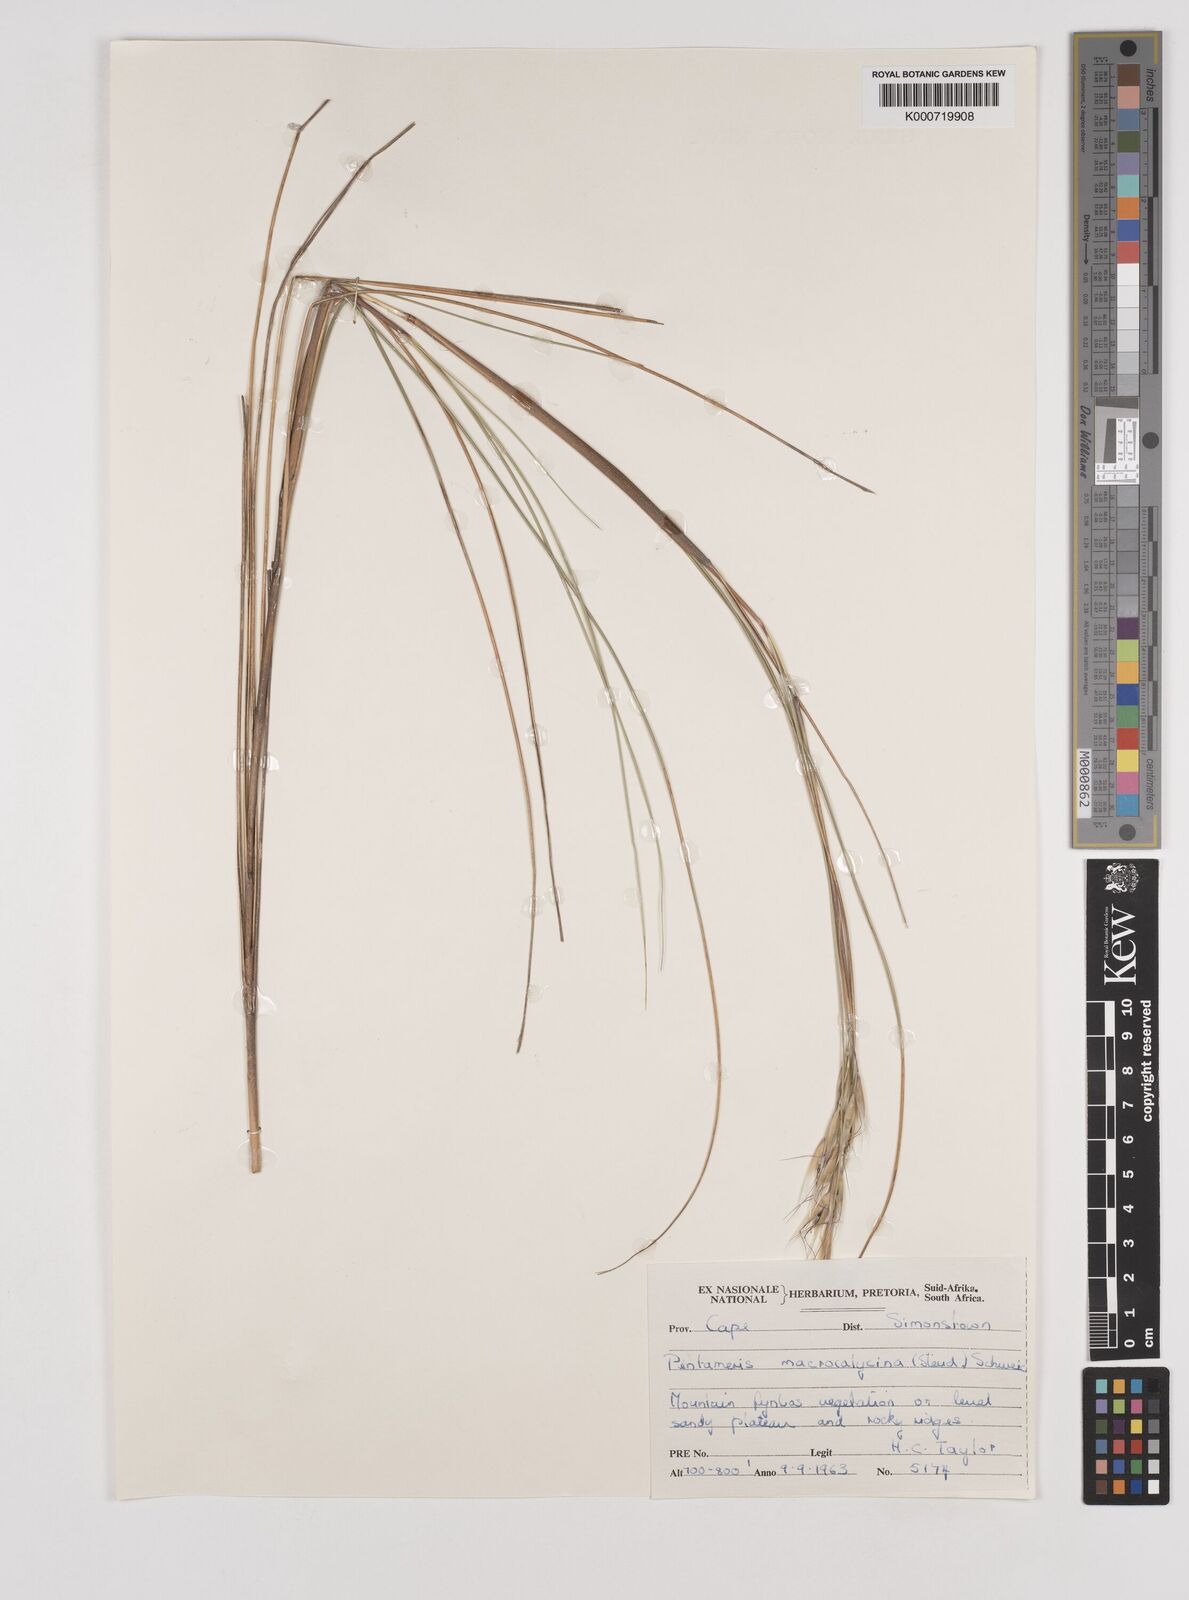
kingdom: Plantae
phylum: Tracheophyta
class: Liliopsida
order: Poales
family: Poaceae
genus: Pentameris
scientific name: Pentameris macrocalycina
